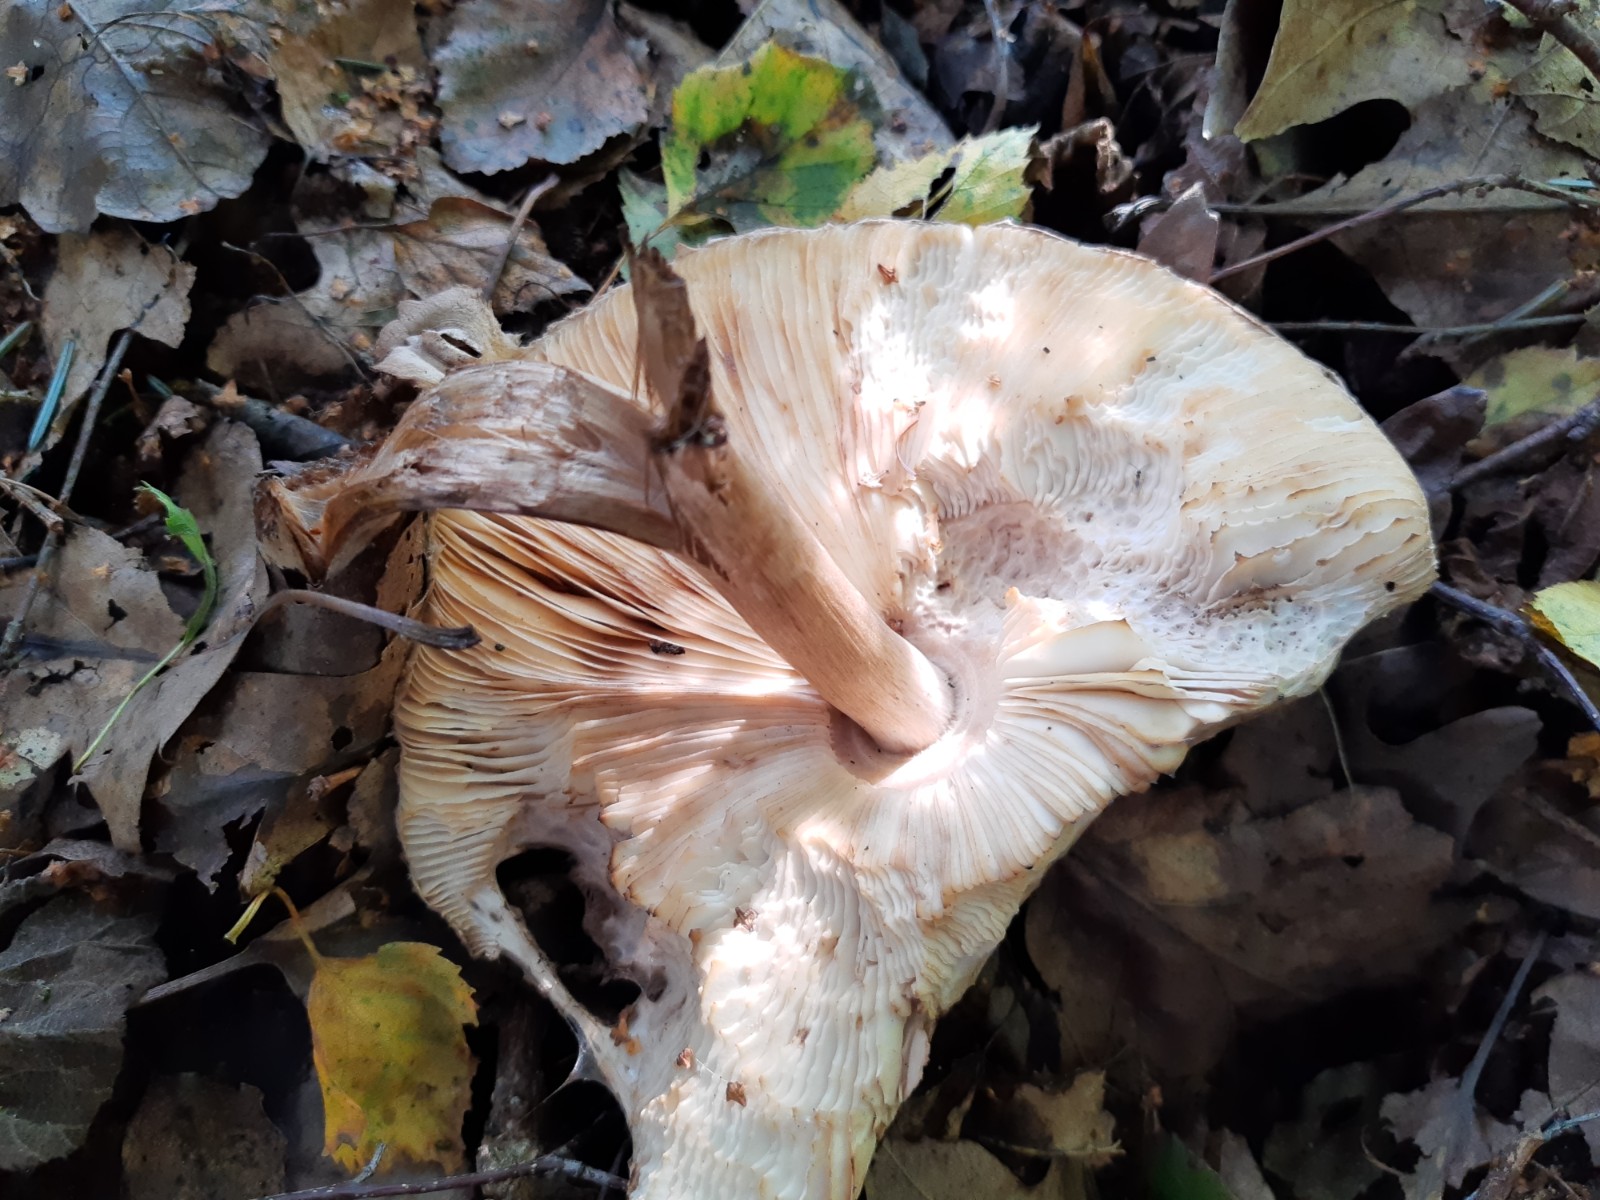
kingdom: Fungi
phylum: Basidiomycota
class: Agaricomycetes
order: Agaricales
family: Agaricaceae
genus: Chlorophyllum
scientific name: Chlorophyllum olivieri
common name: almindelig rabarberhat
